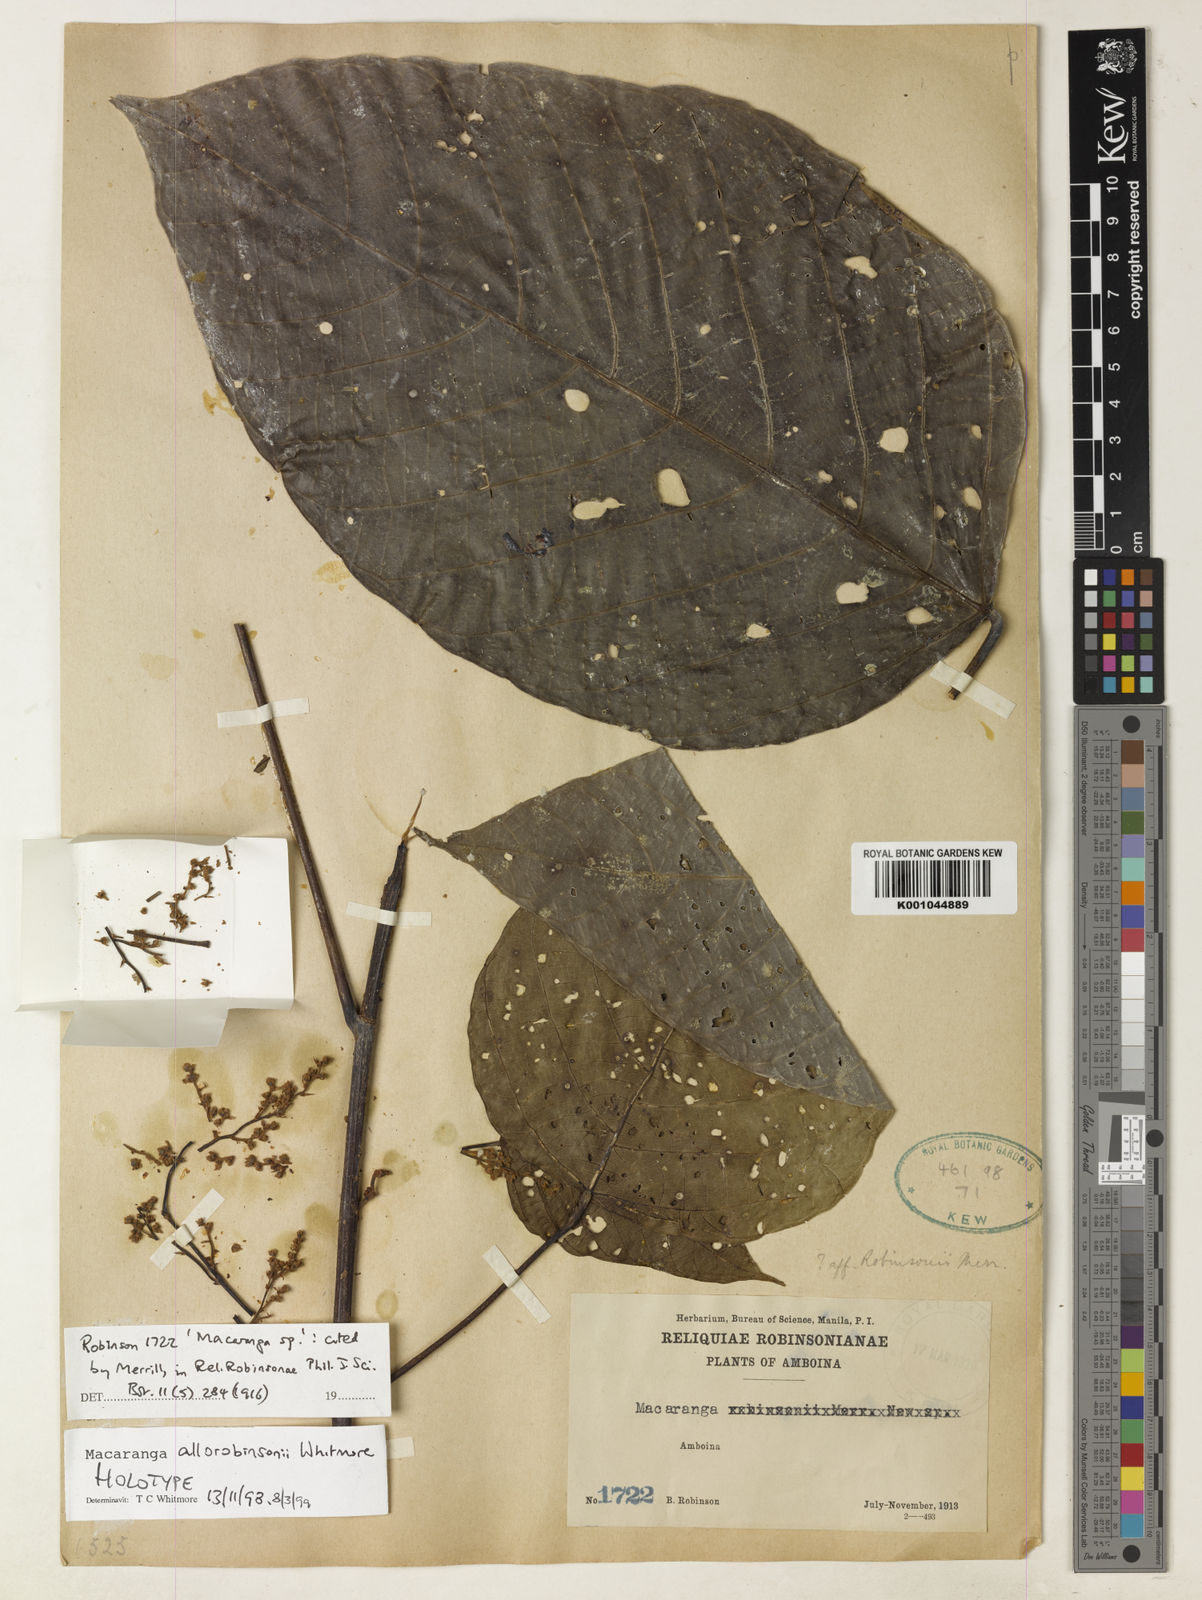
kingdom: Plantae
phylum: Tracheophyta
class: Magnoliopsida
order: Malpighiales
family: Euphorbiaceae
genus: Macaranga
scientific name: Macaranga allorobinsonii
